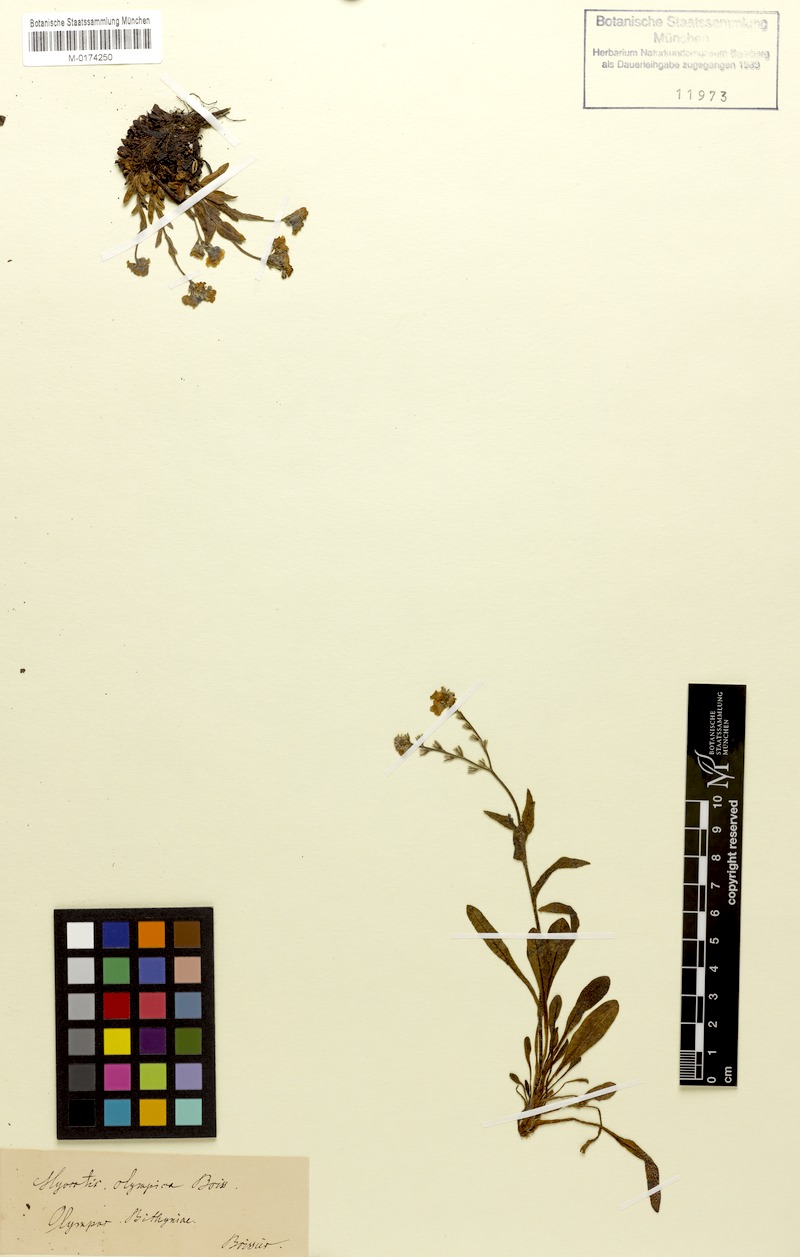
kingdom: Plantae
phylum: Tracheophyta
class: Magnoliopsida
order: Boraginales
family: Boraginaceae
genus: Myosotis
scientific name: Myosotis olympica
